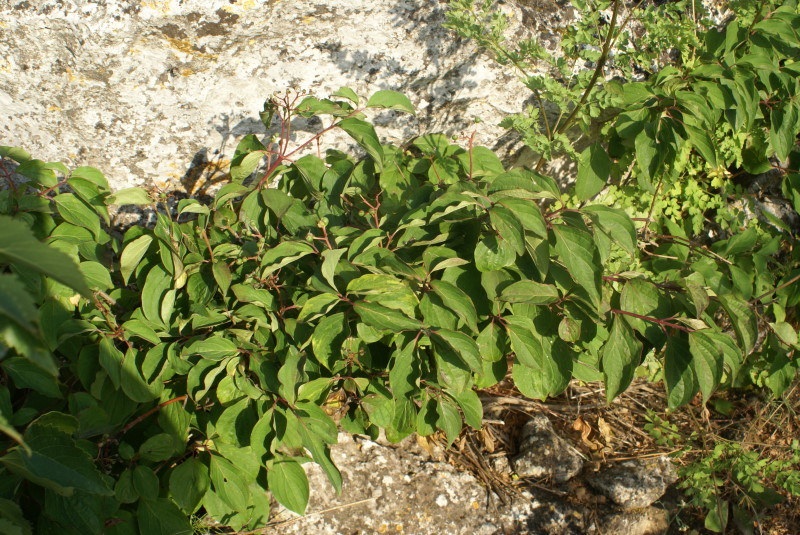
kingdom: Plantae
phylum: Tracheophyta
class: Magnoliopsida
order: Cornales
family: Cornaceae
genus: Cornus
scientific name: Cornus sanguinea
